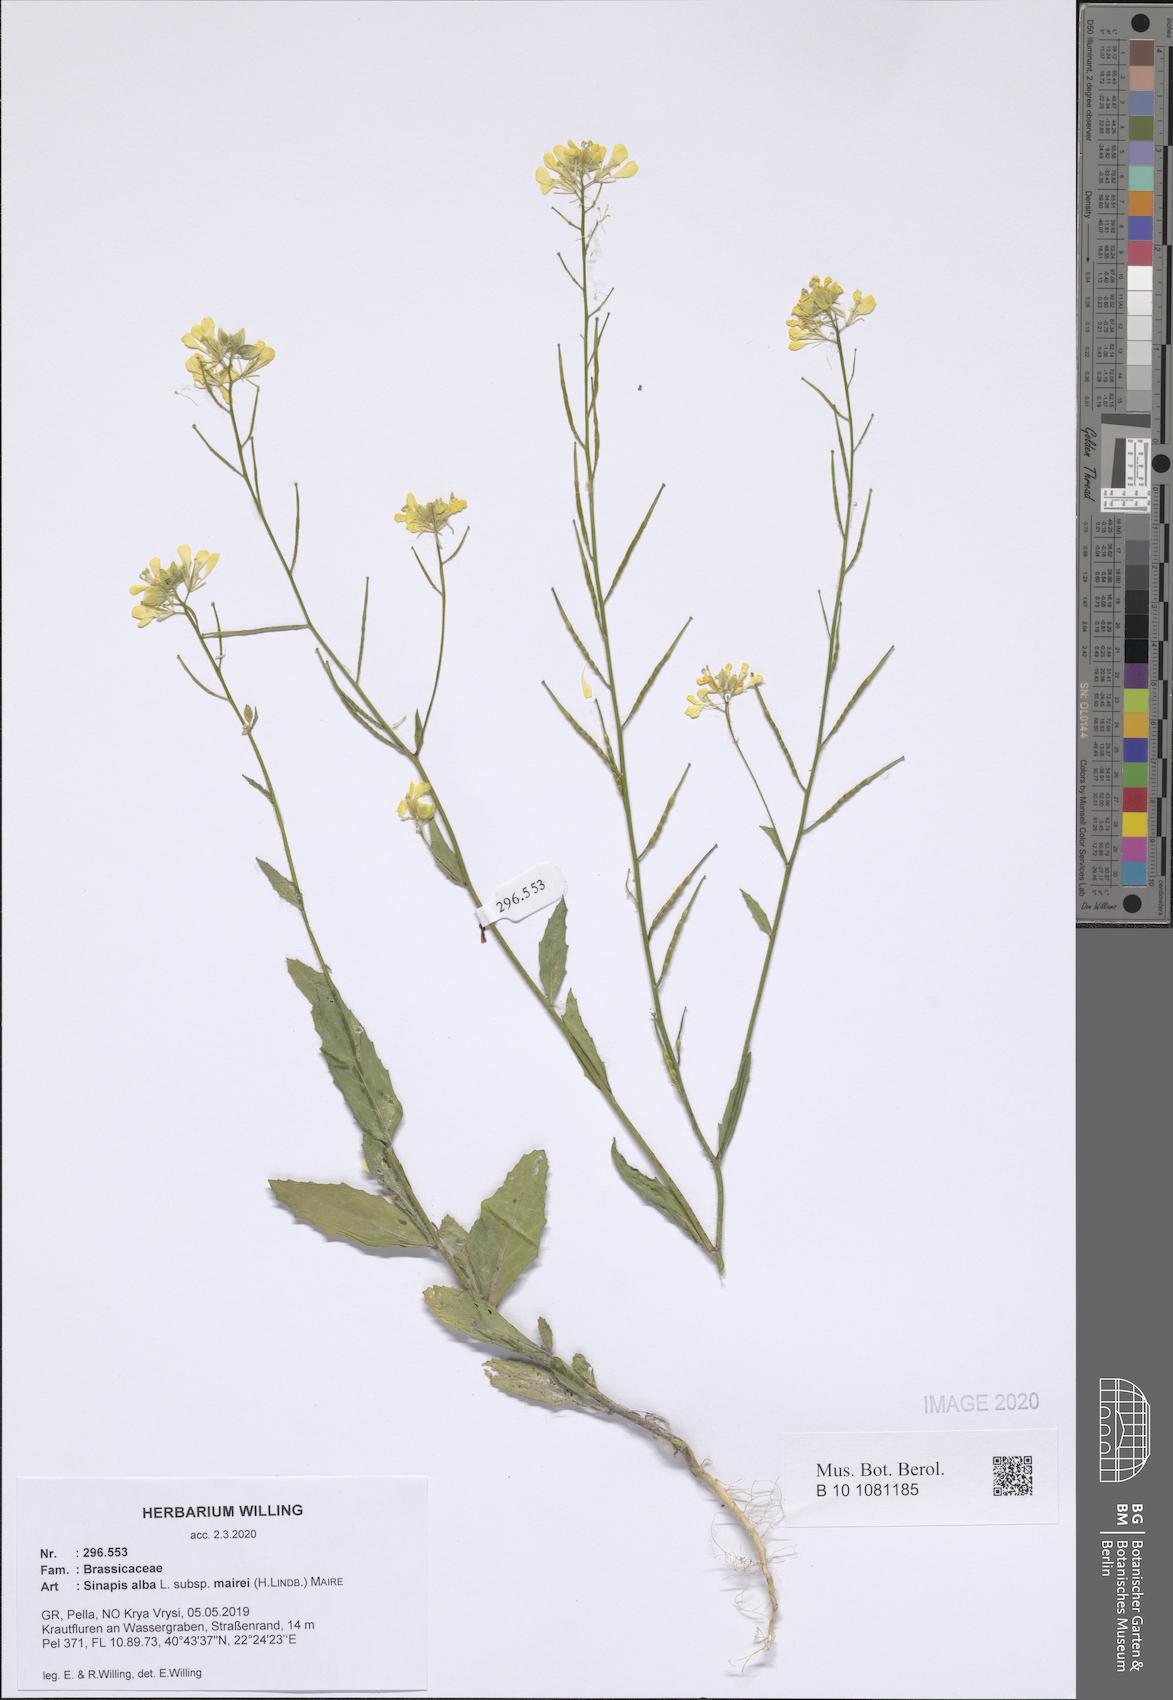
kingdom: Plantae
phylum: Tracheophyta
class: Magnoliopsida
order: Brassicales
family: Brassicaceae
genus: Sinapis
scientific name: Sinapis alba
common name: White mustard
